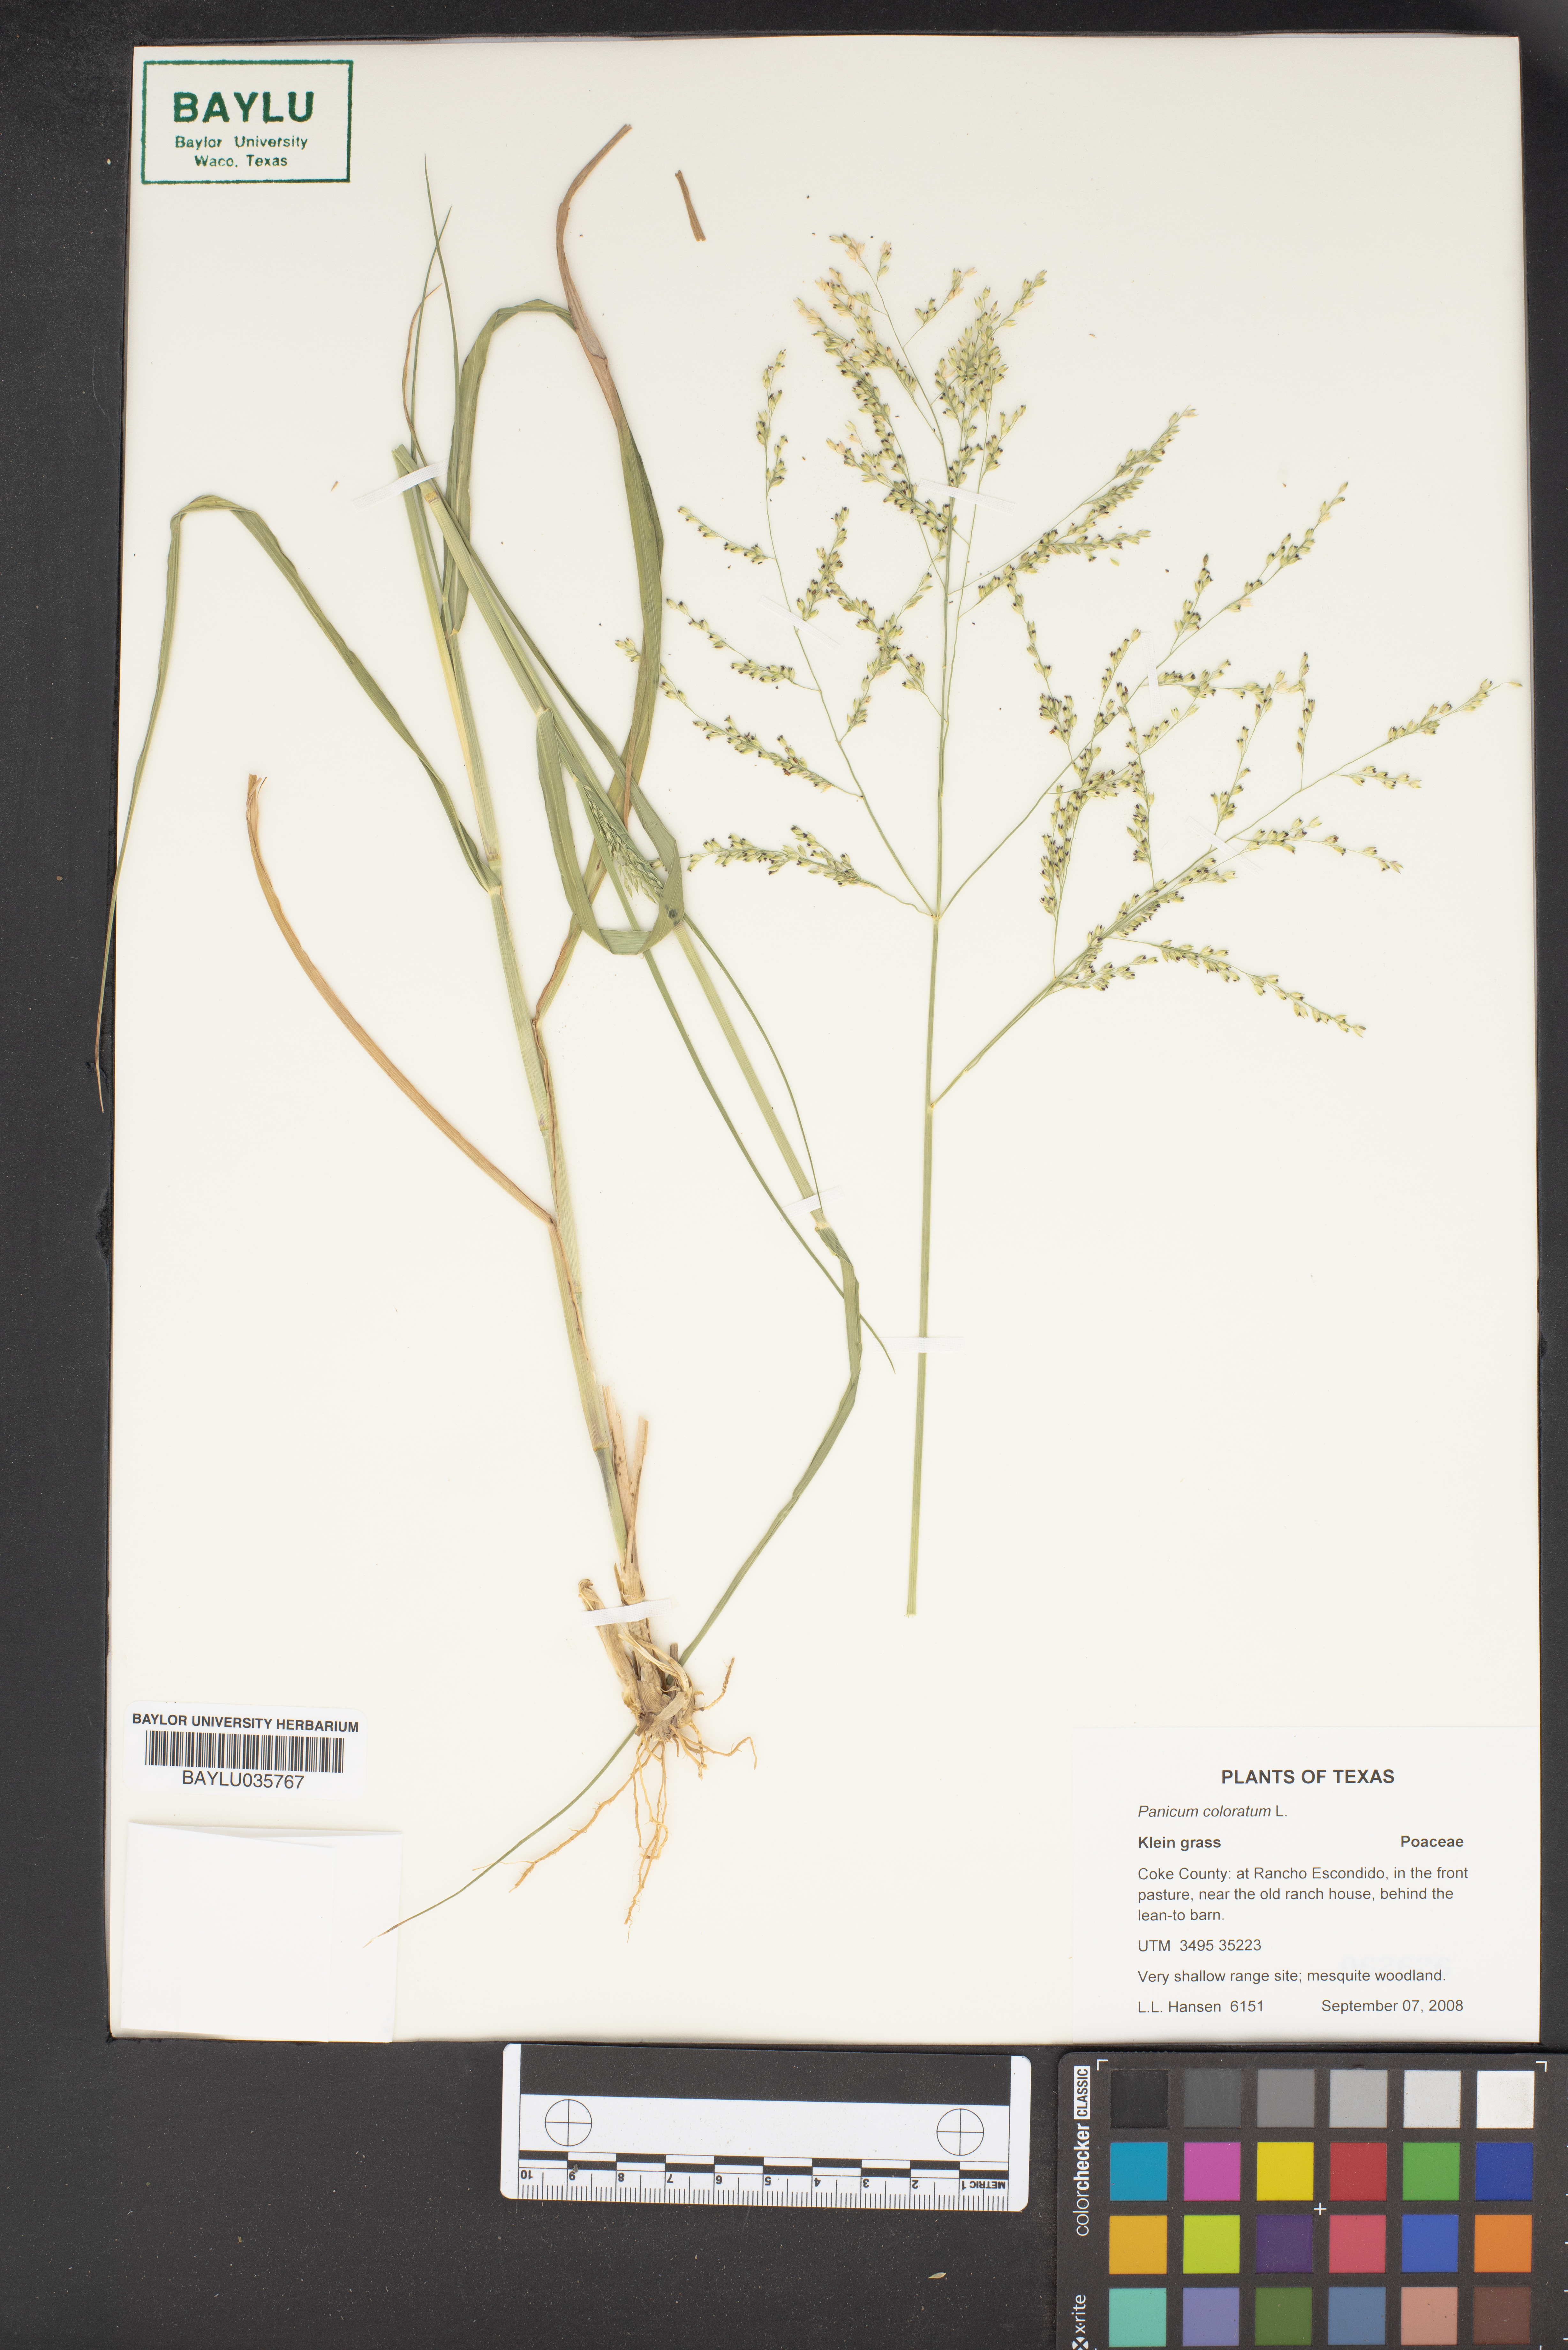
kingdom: Plantae
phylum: Tracheophyta
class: Liliopsida
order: Poales
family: Poaceae
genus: Panicum
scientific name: Panicum coloratum
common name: Kleingrass
